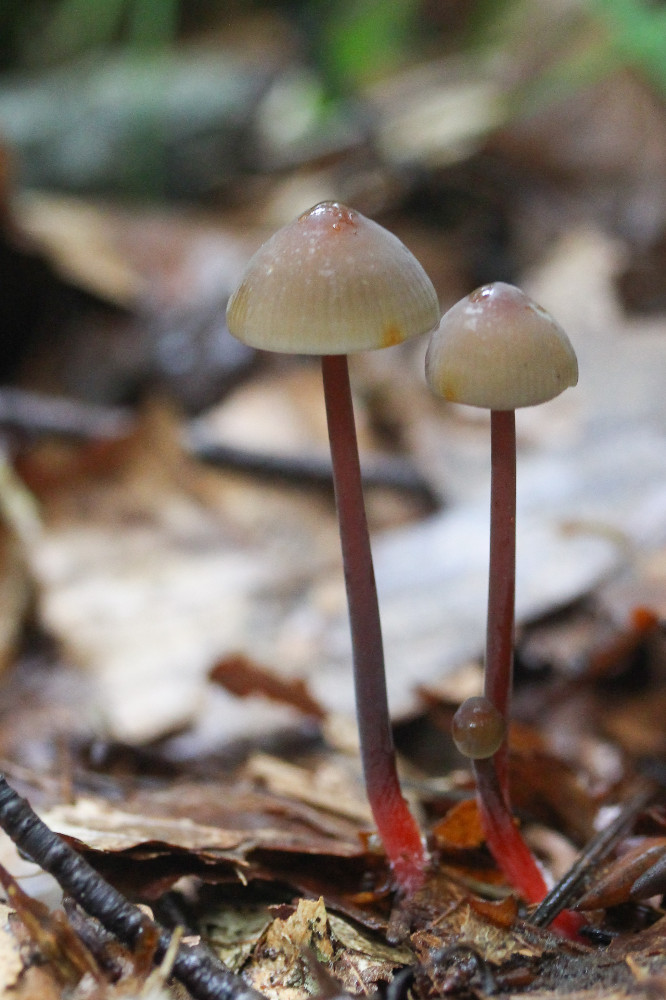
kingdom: Fungi
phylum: Basidiomycota
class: Agaricomycetes
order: Agaricales
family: Mycenaceae
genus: Mycena
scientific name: Mycena crocata
